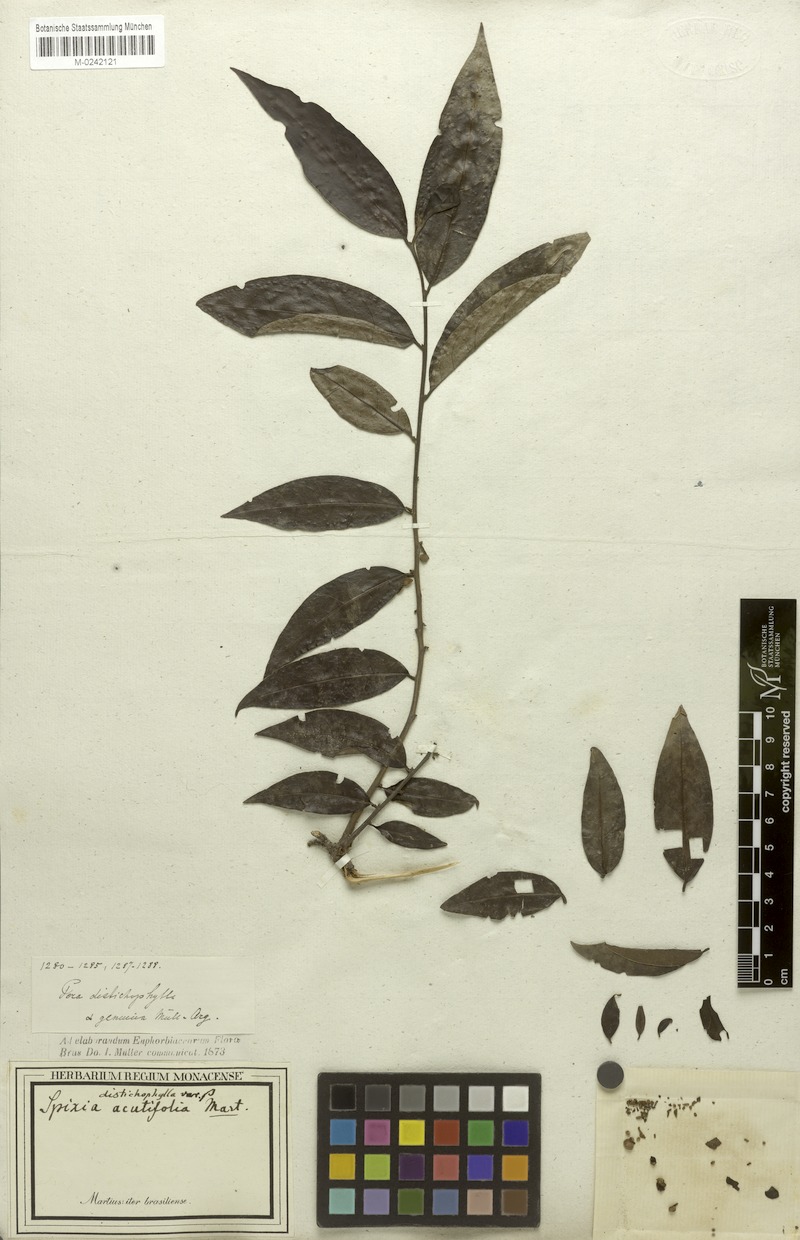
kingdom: Plantae
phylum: Tracheophyta
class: Magnoliopsida
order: Malpighiales
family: Peraceae
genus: Pera
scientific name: Pera distichophylla
